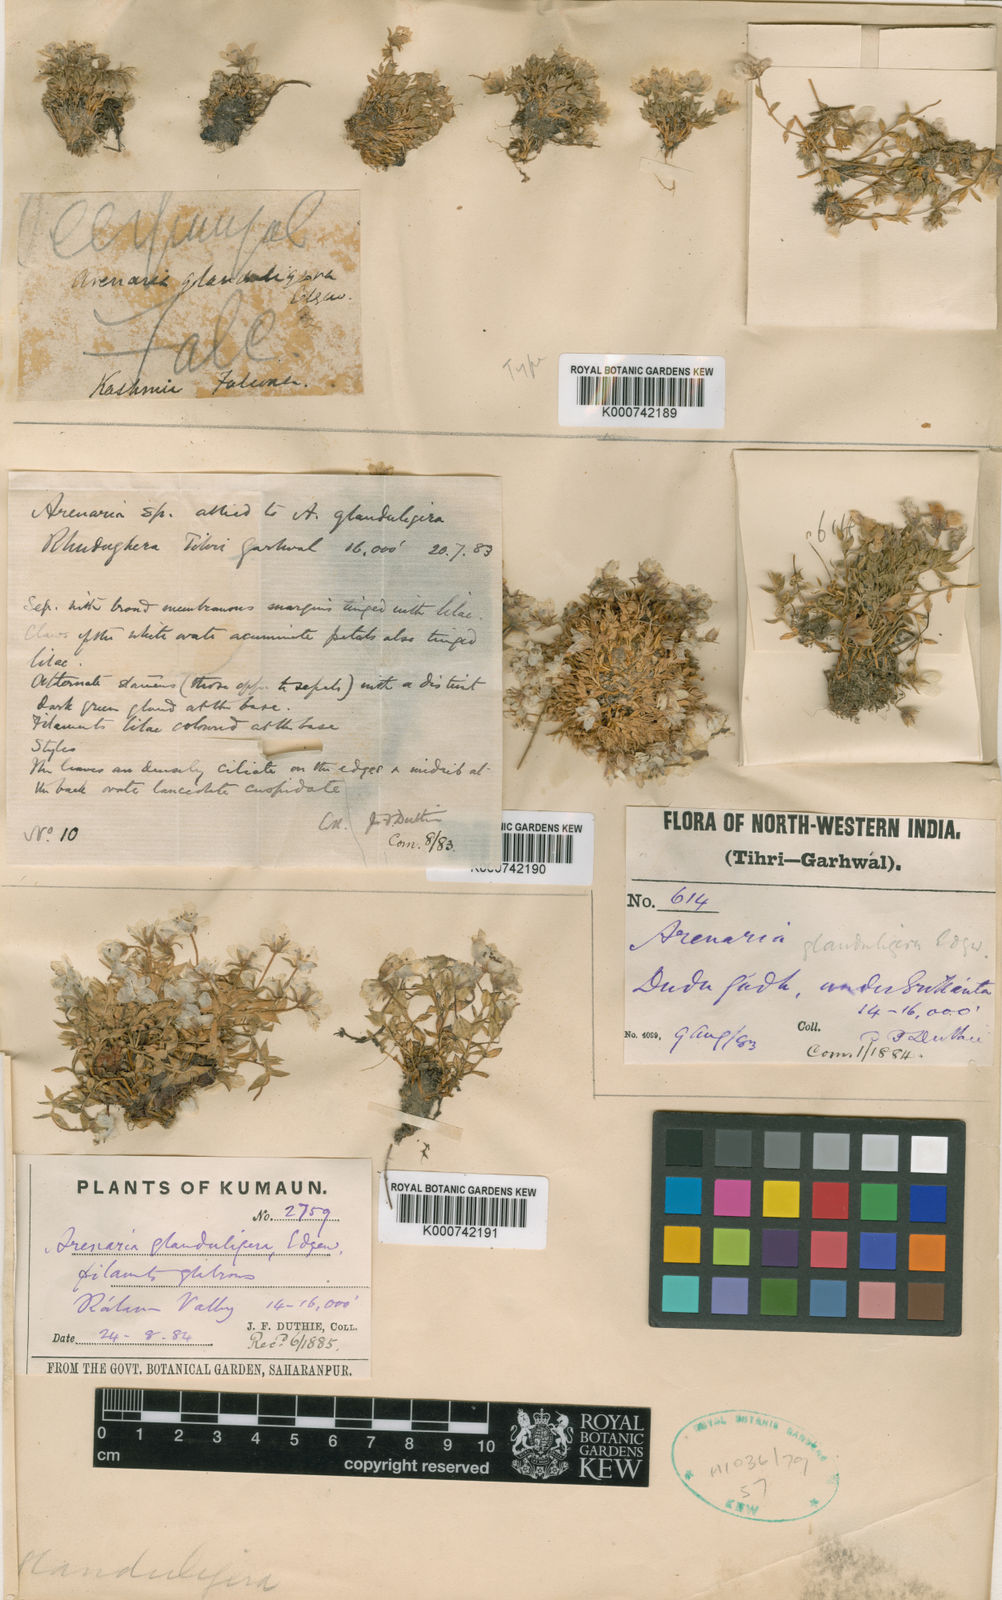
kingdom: Plantae
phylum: Tracheophyta
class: Magnoliopsida
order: Caryophyllales
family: Caryophyllaceae
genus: Shivparvatia
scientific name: Shivparvatia glanduligera
